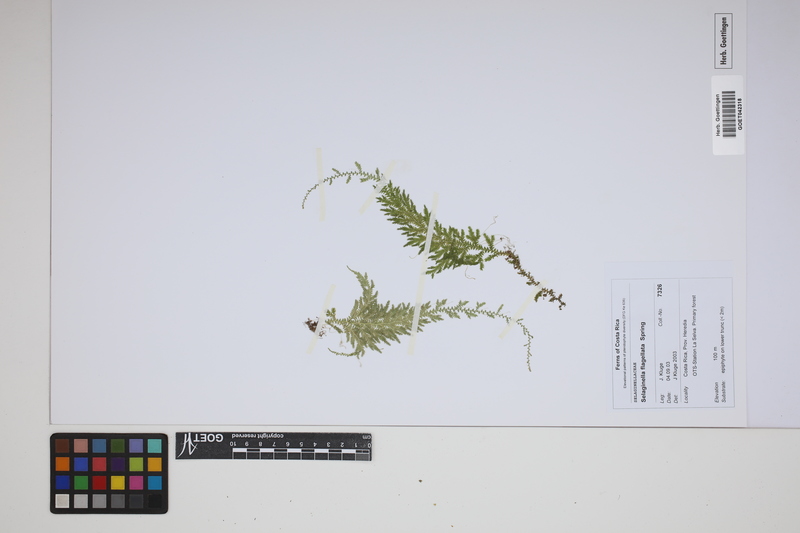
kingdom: Plantae
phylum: Tracheophyta
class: Lycopodiopsida
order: Selaginellales
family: Selaginellaceae
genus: Selaginella
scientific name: Selaginella flagellata
